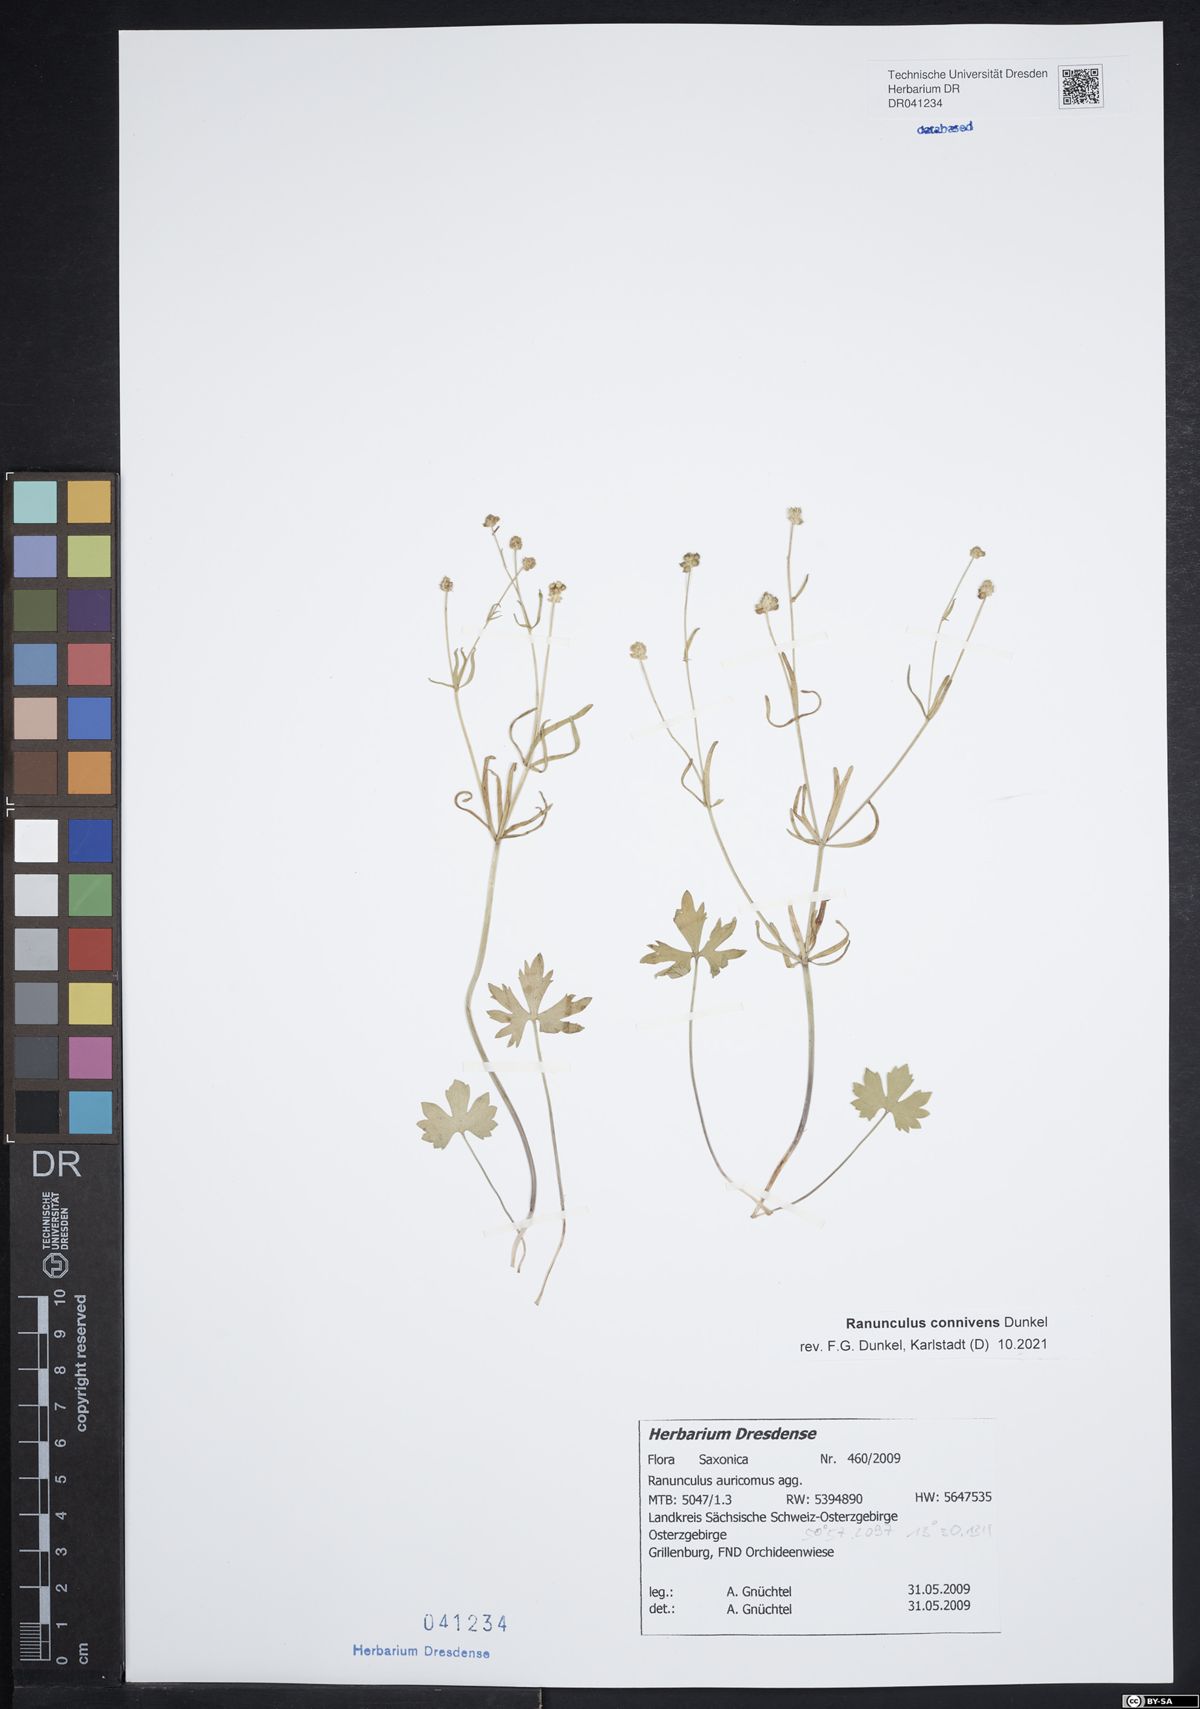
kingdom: Plantae
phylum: Tracheophyta
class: Magnoliopsida
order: Ranunculales
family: Ranunculaceae
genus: Ranunculus
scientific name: Ranunculus connivens
